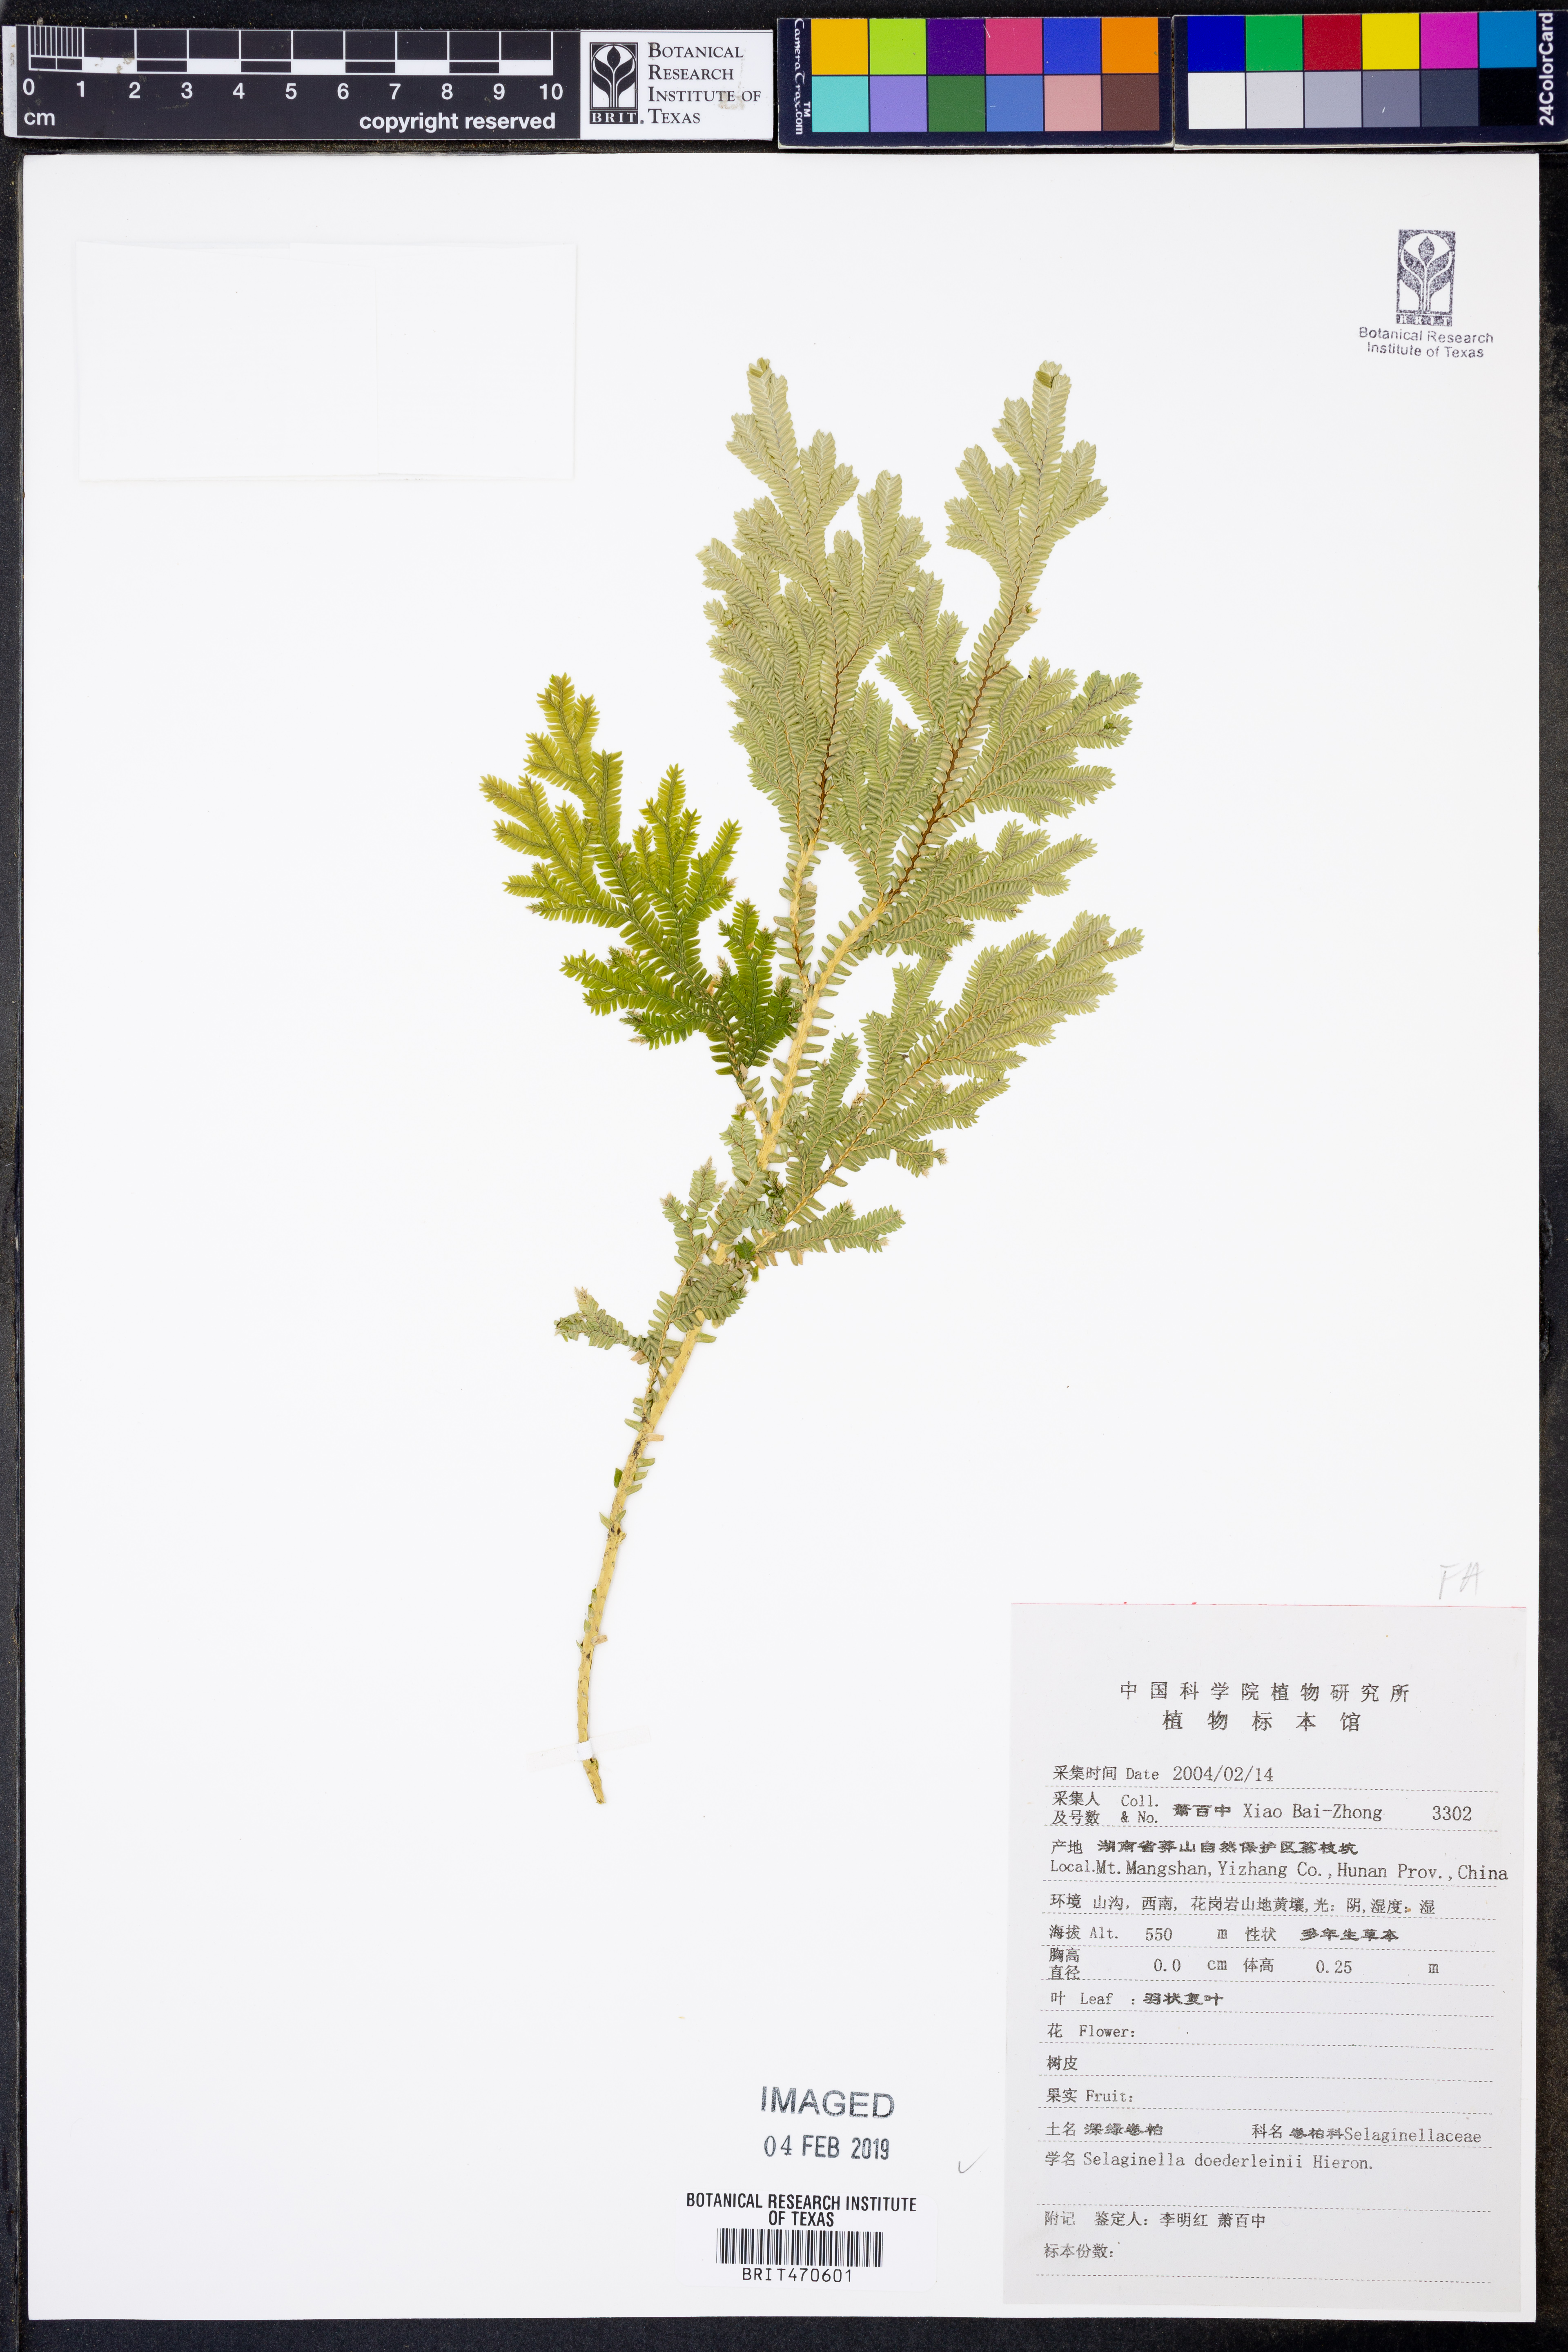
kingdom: Plantae
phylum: Tracheophyta
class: Lycopodiopsida
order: Selaginellales
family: Selaginellaceae
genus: Selaginella
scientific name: Selaginella doederleinii
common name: Greater selaginella
